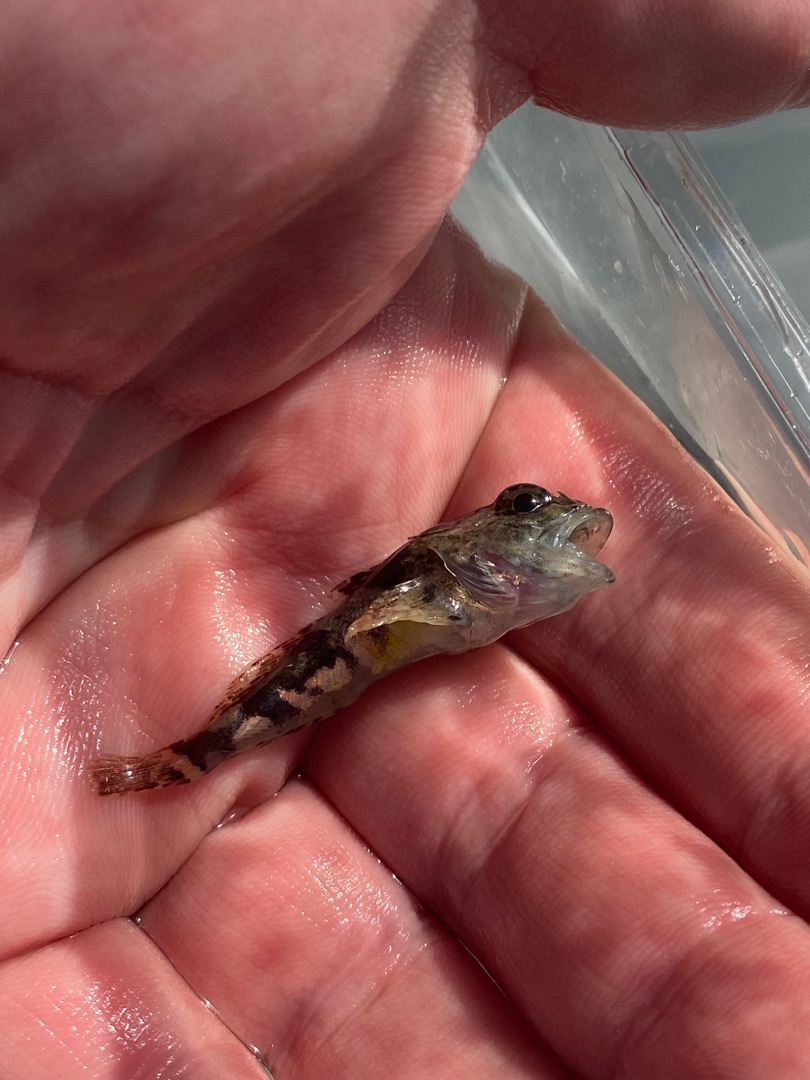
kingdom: Animalia
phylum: Chordata
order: Scorpaeniformes
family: Cottidae
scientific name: Cottidae
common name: Ulkefamilien
